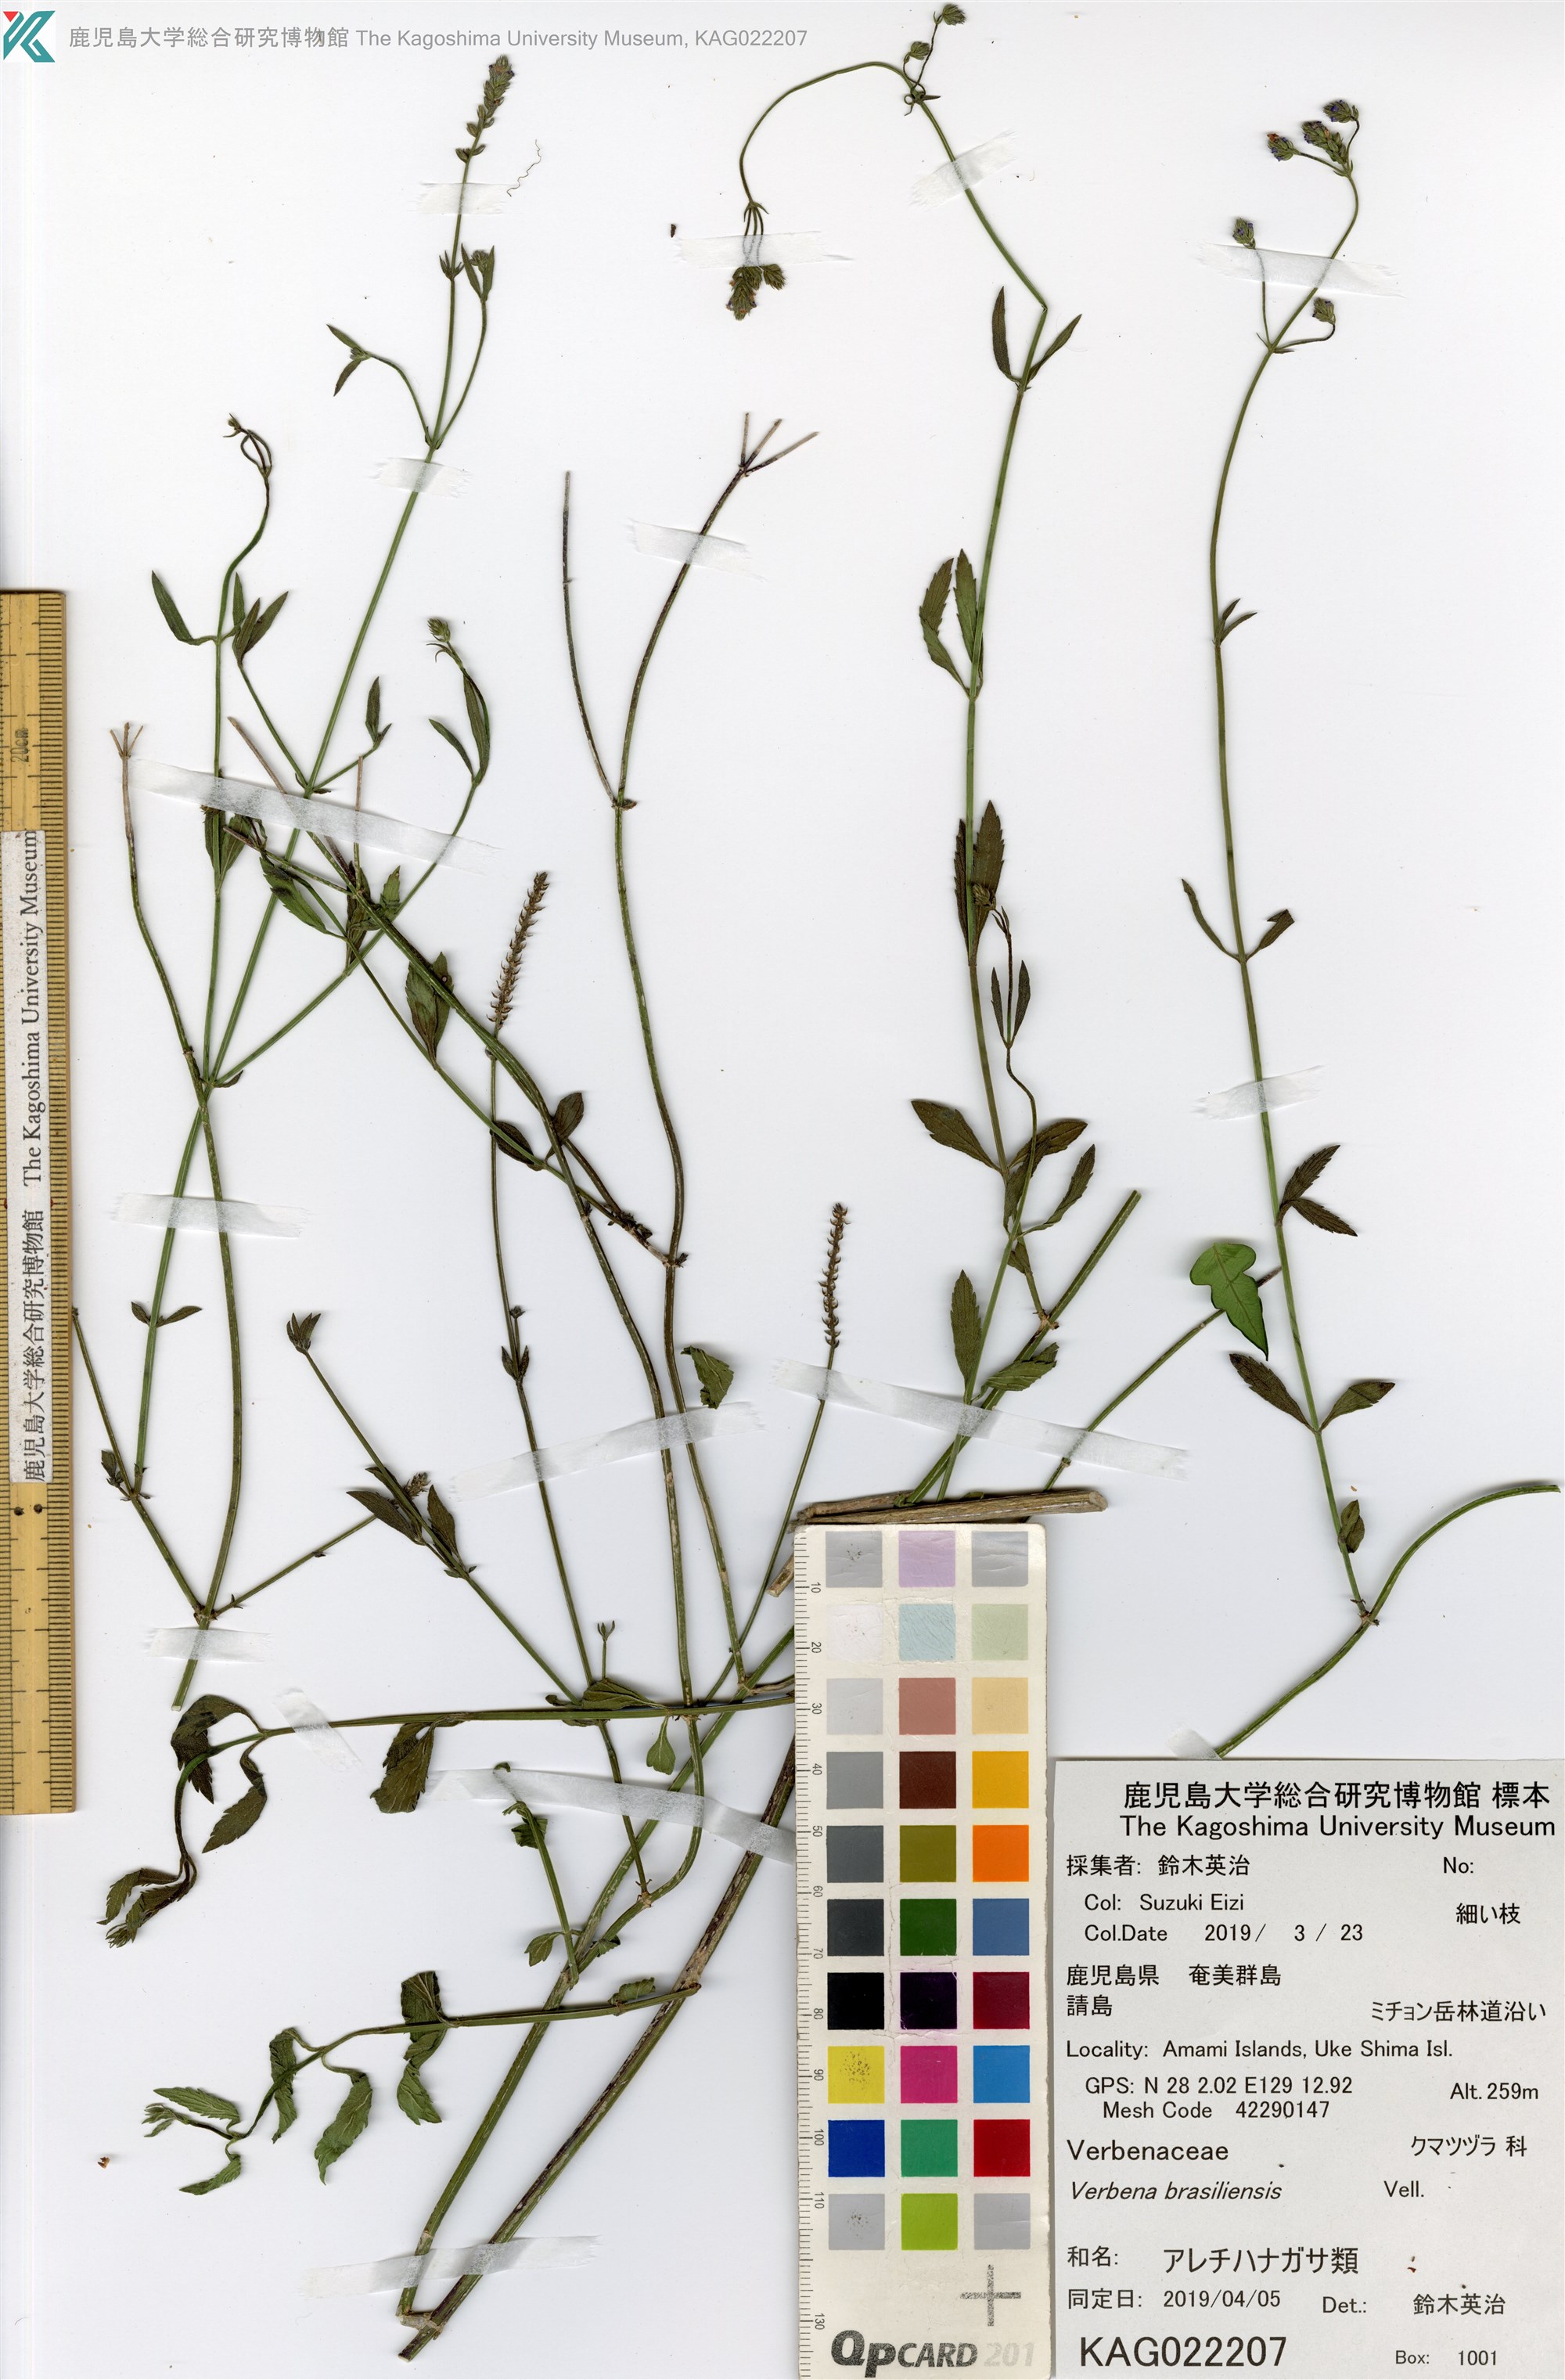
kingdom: Plantae
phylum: Tracheophyta
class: Magnoliopsida
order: Lamiales
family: Verbenaceae
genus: Verbena
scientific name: Verbena litoralis
